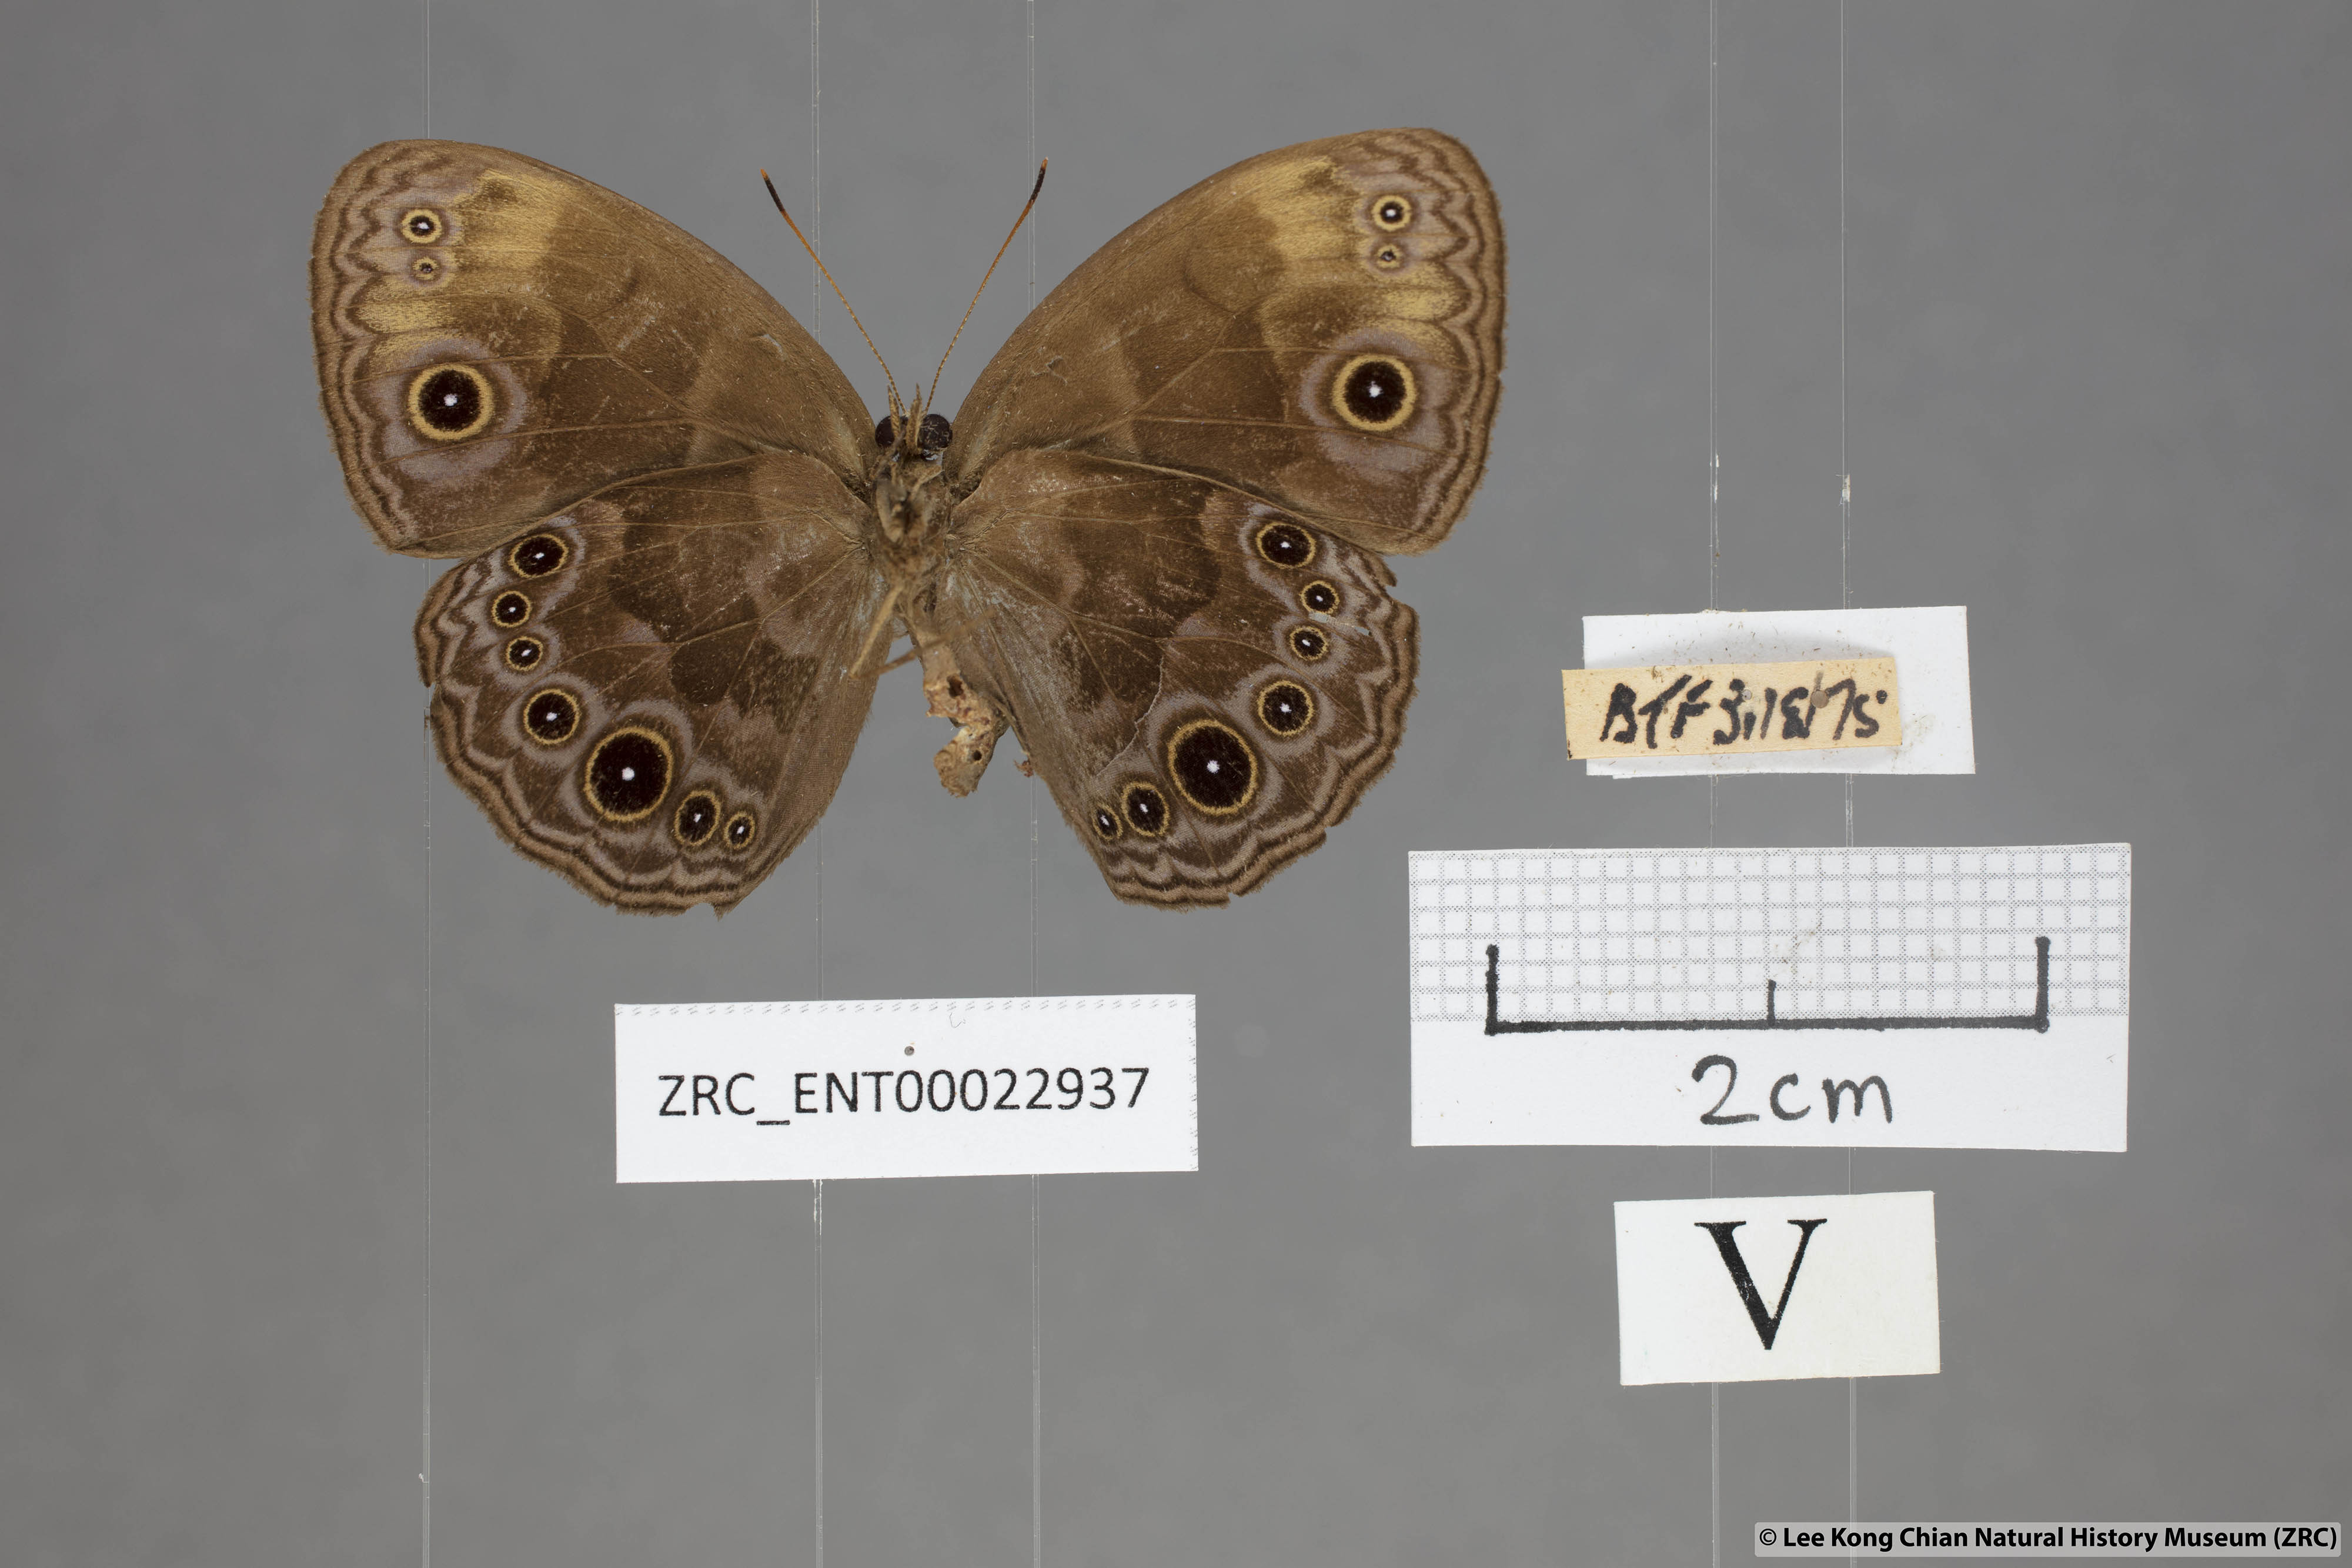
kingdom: Animalia
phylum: Arthropoda
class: Insecta
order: Lepidoptera
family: Nymphalidae
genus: Mycalesis
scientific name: Mycalesis maianeas
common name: Bandless bushbrown
